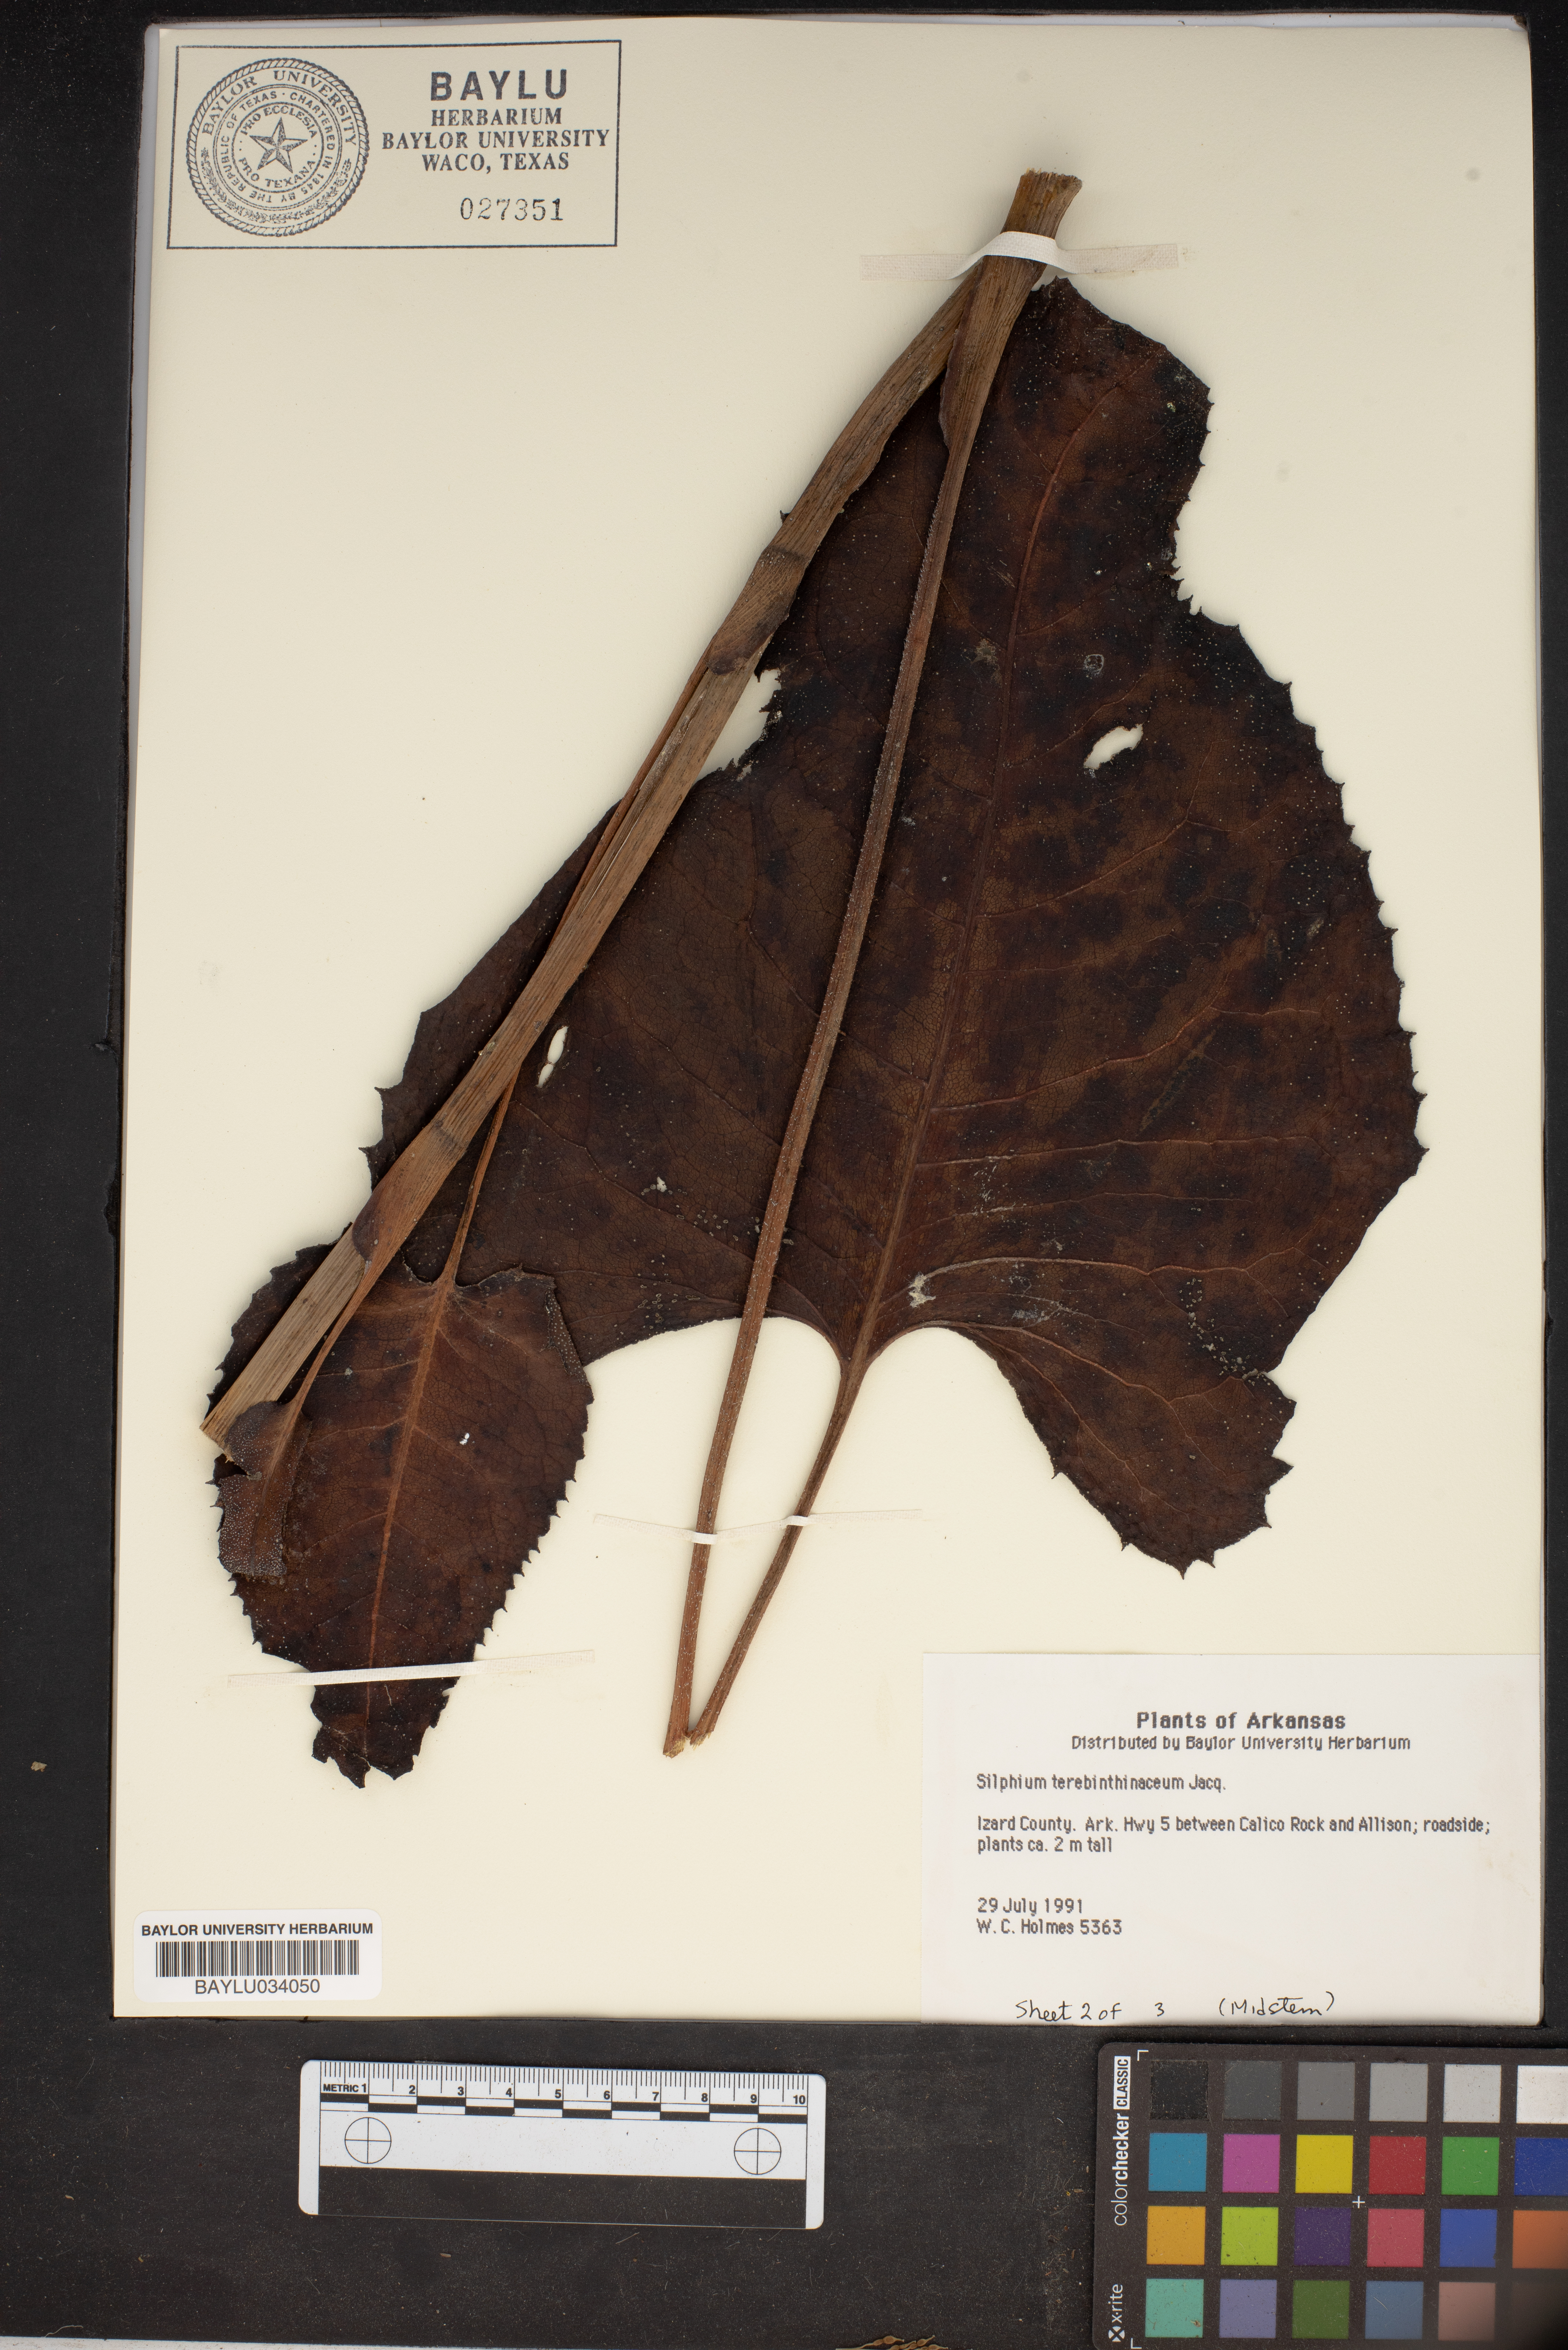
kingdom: Plantae
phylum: Tracheophyta
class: Magnoliopsida
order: Asterales
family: Asteraceae
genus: Silphium
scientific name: Silphium terebinthinaceum
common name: Basal-leaf rosinweed
